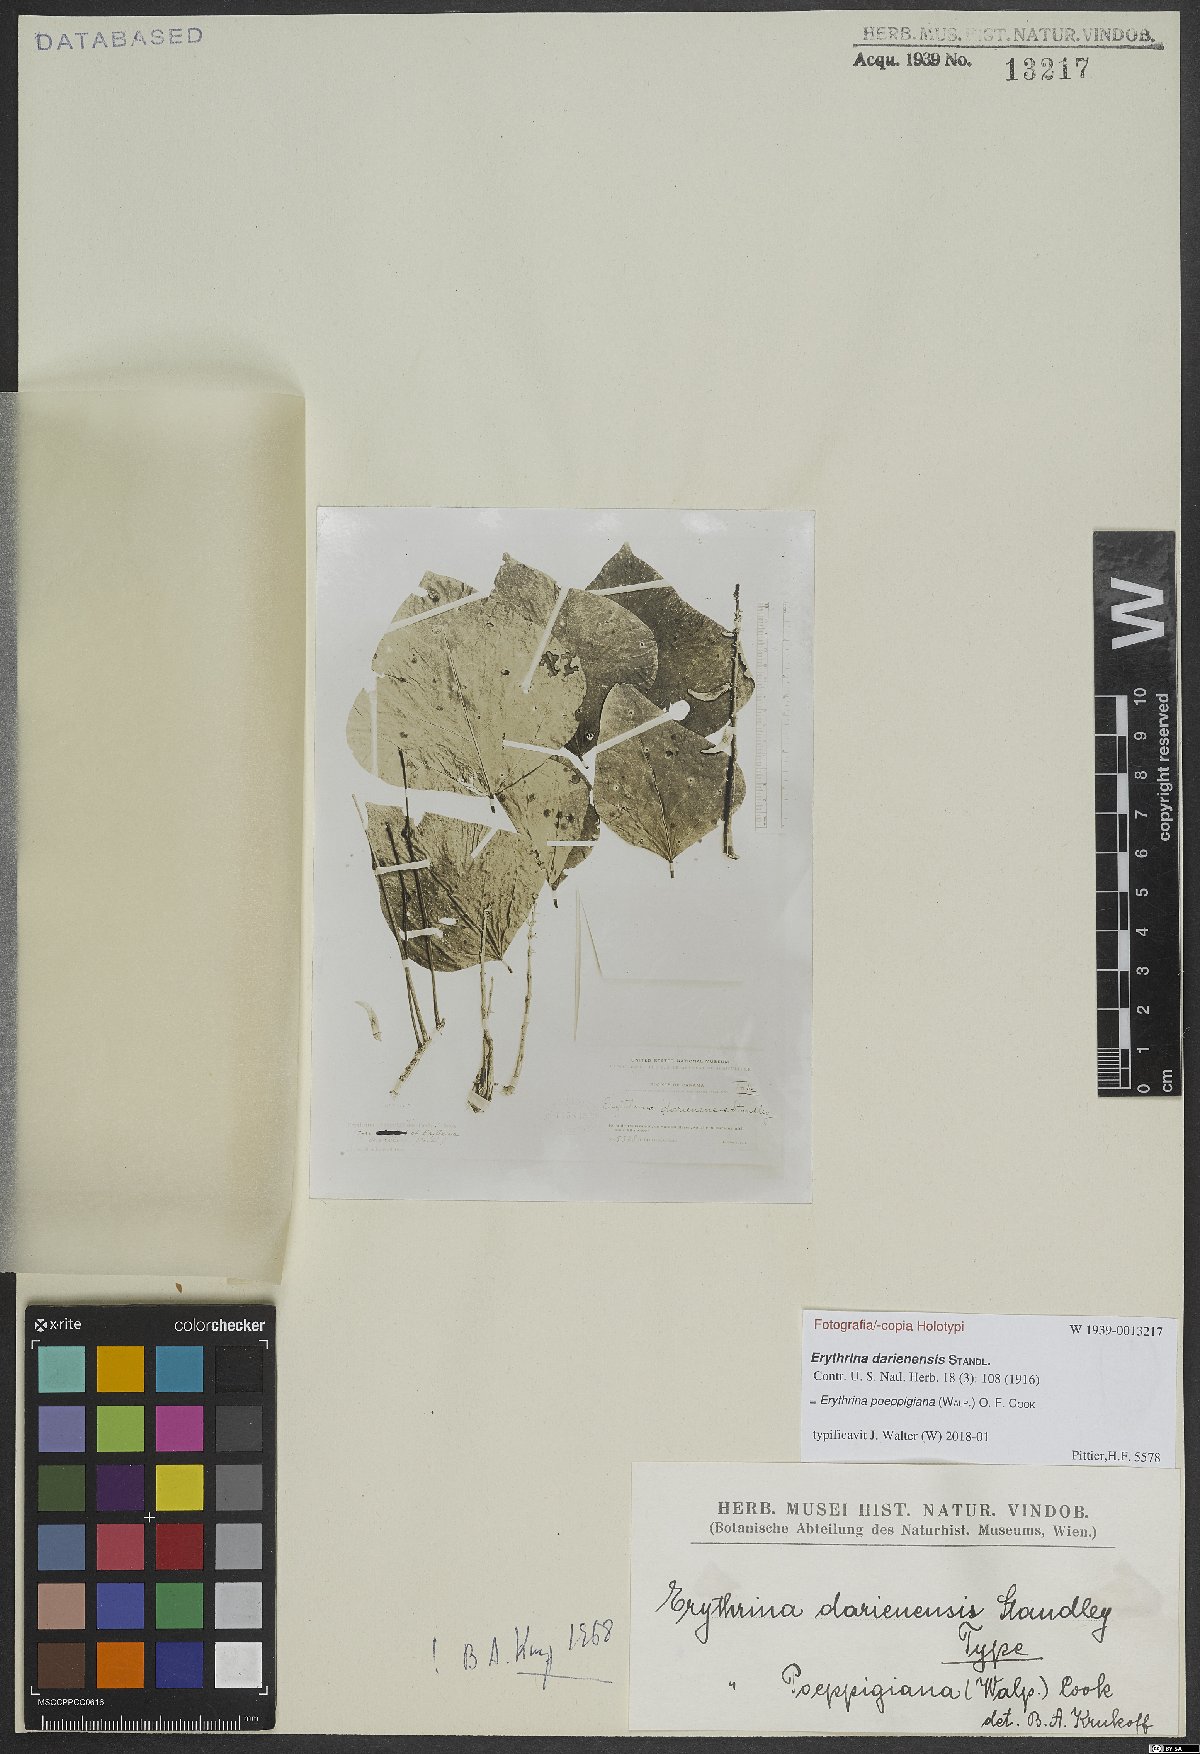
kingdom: Plantae
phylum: Tracheophyta
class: Magnoliopsida
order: Fabales
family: Fabaceae
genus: Erythrina
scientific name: Erythrina poeppigiana
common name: Coral tree
